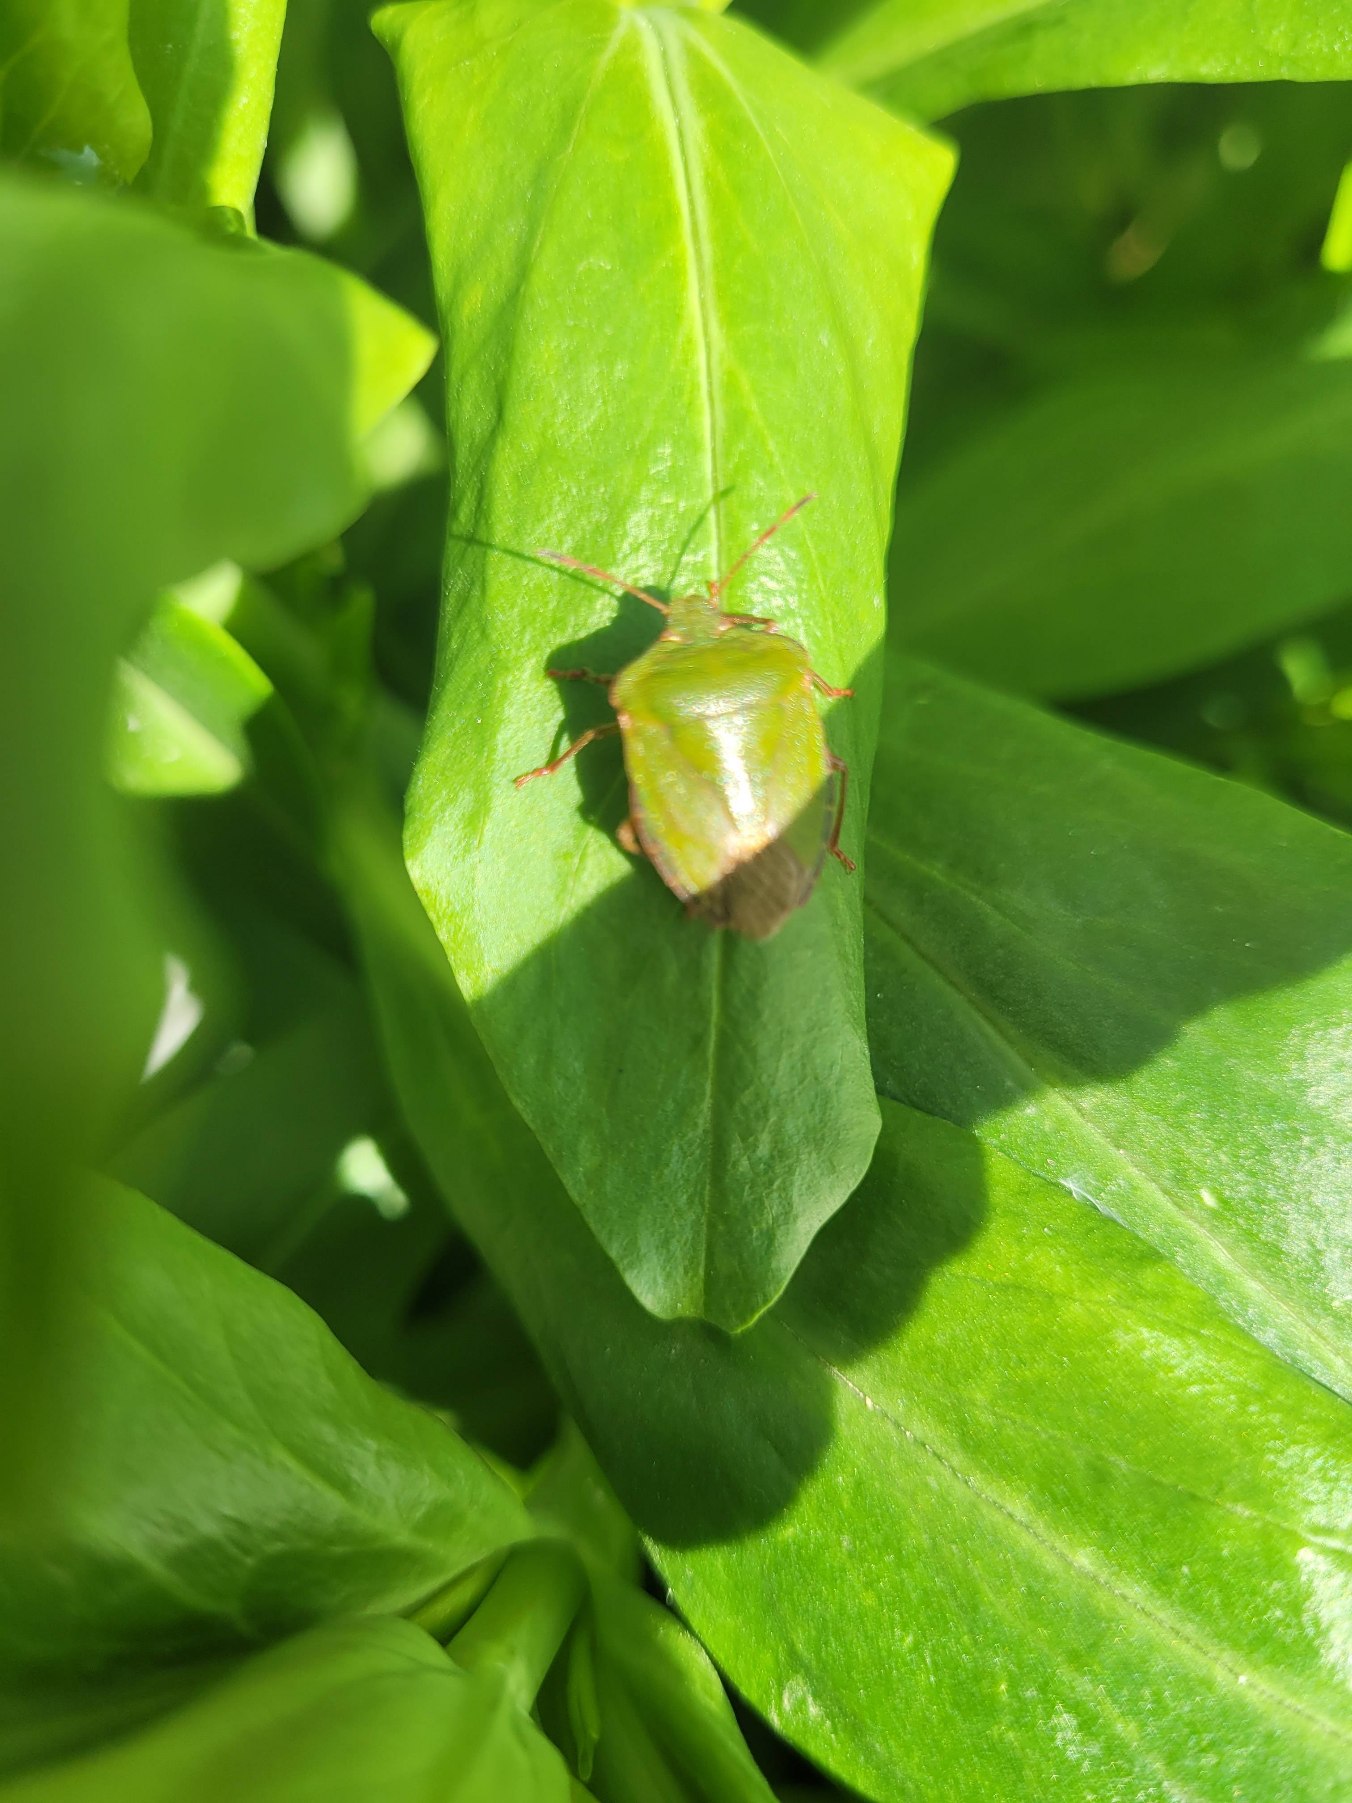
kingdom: Animalia
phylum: Arthropoda
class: Insecta
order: Hemiptera
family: Pentatomidae
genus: Palomena
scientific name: Palomena prasina
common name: Grøn bredtæge
